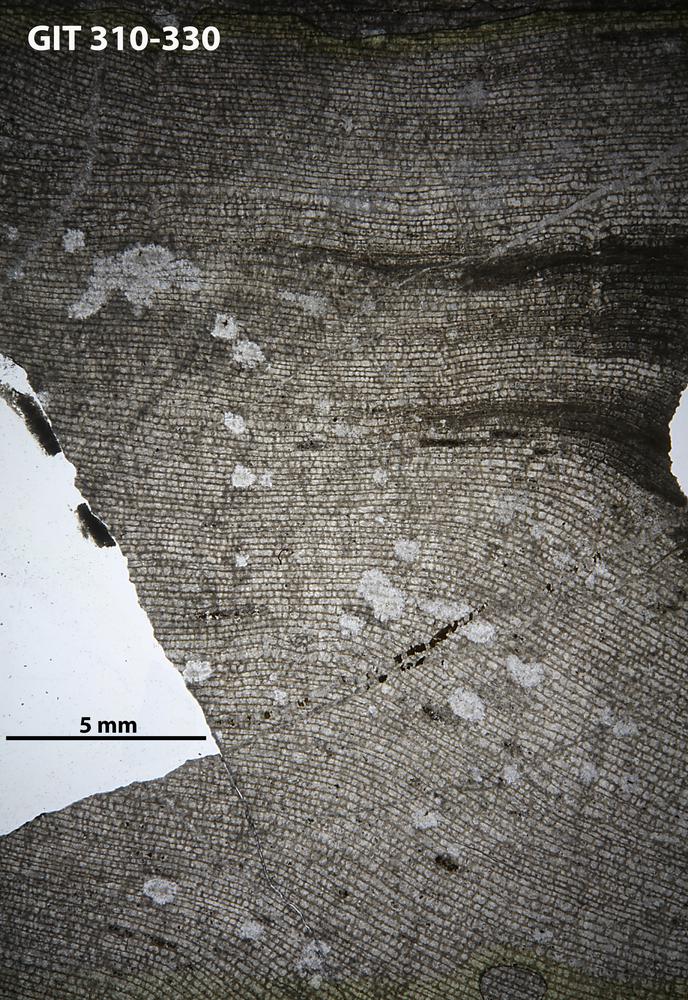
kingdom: Animalia
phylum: Porifera
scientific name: Porifera
